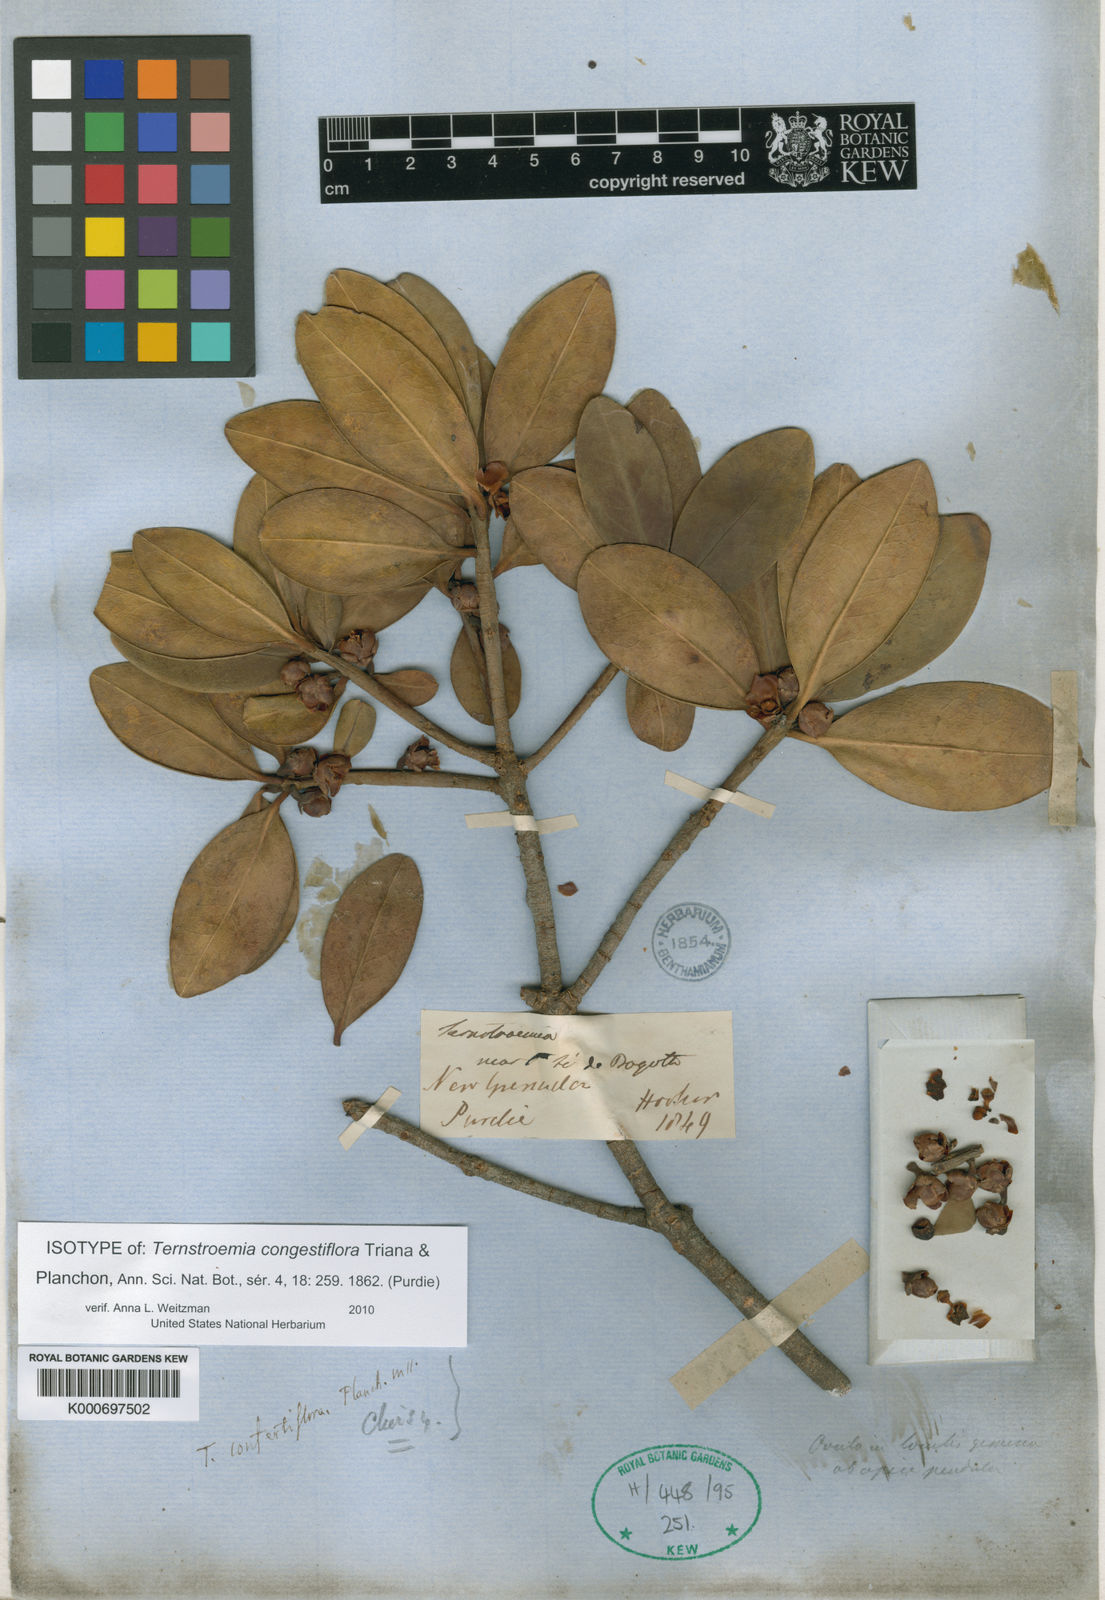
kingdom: Plantae
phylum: Tracheophyta
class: Magnoliopsida
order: Ericales
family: Pentaphylacaceae
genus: Ternstroemia
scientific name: Ternstroemia congestiflora
